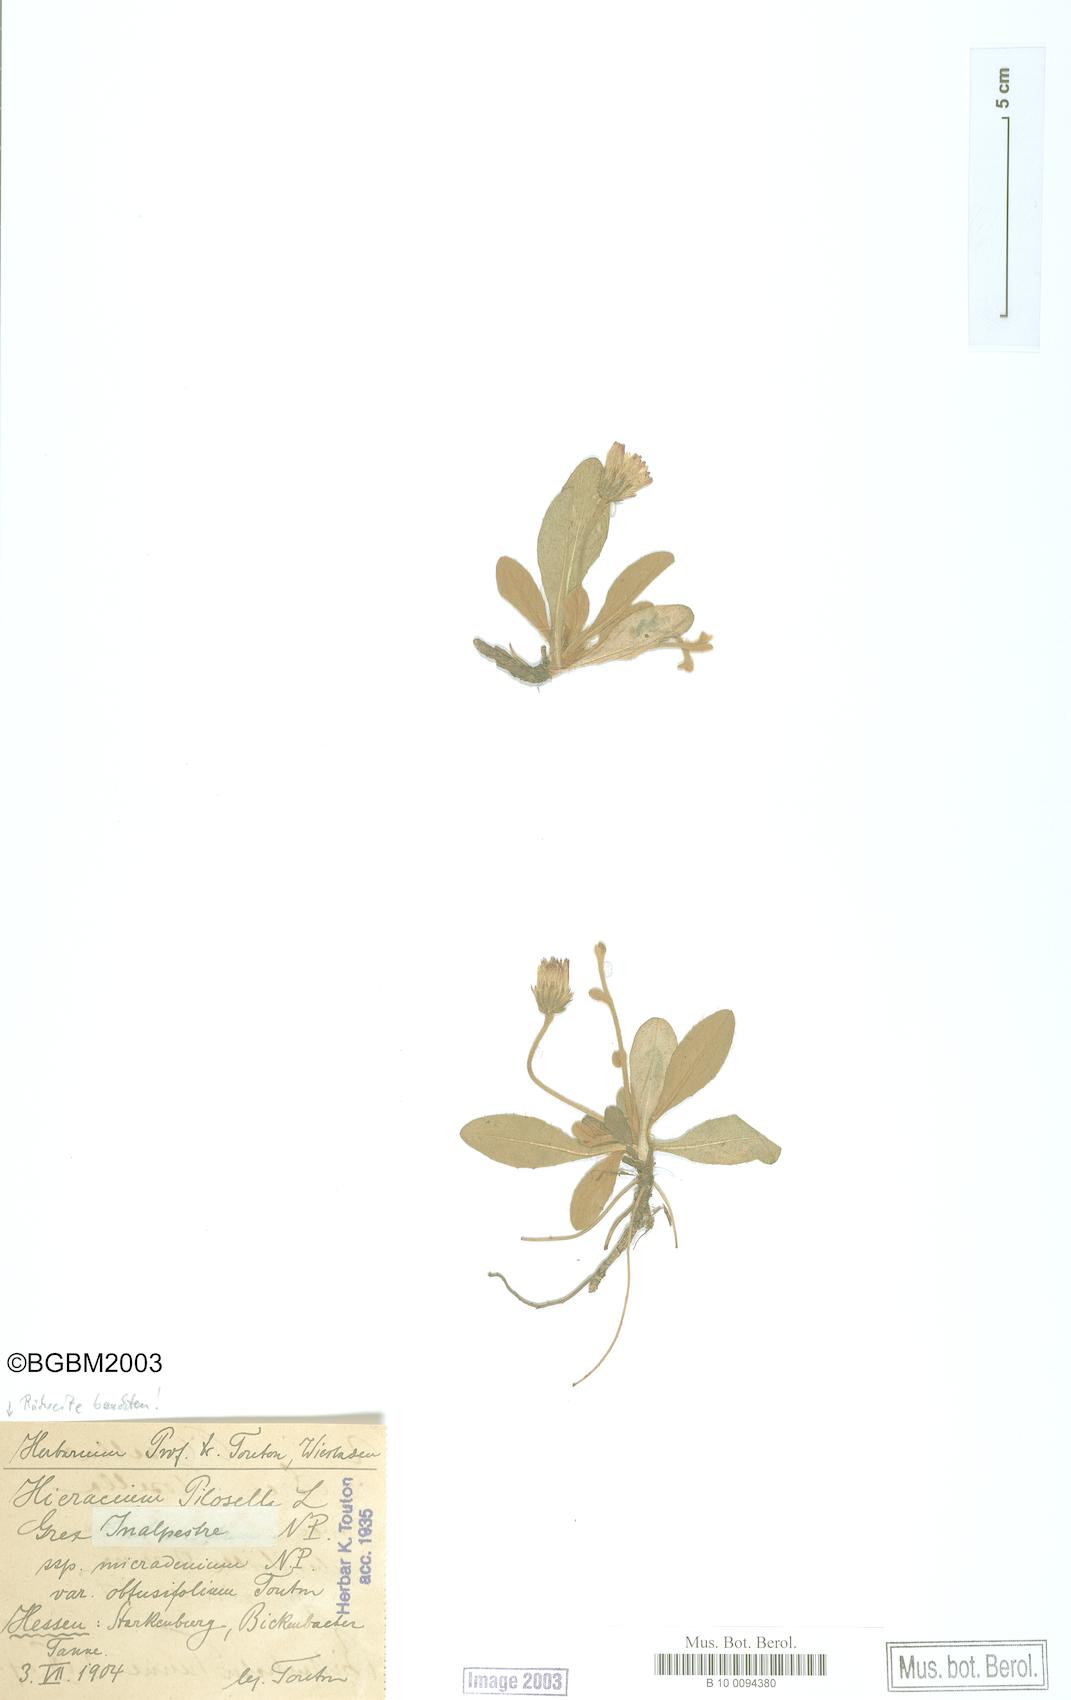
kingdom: Plantae
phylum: Tracheophyta
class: Magnoliopsida
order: Asterales
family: Asteraceae
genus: Pilosella
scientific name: Pilosella officinarum
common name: Mouse-ear hawkweed
